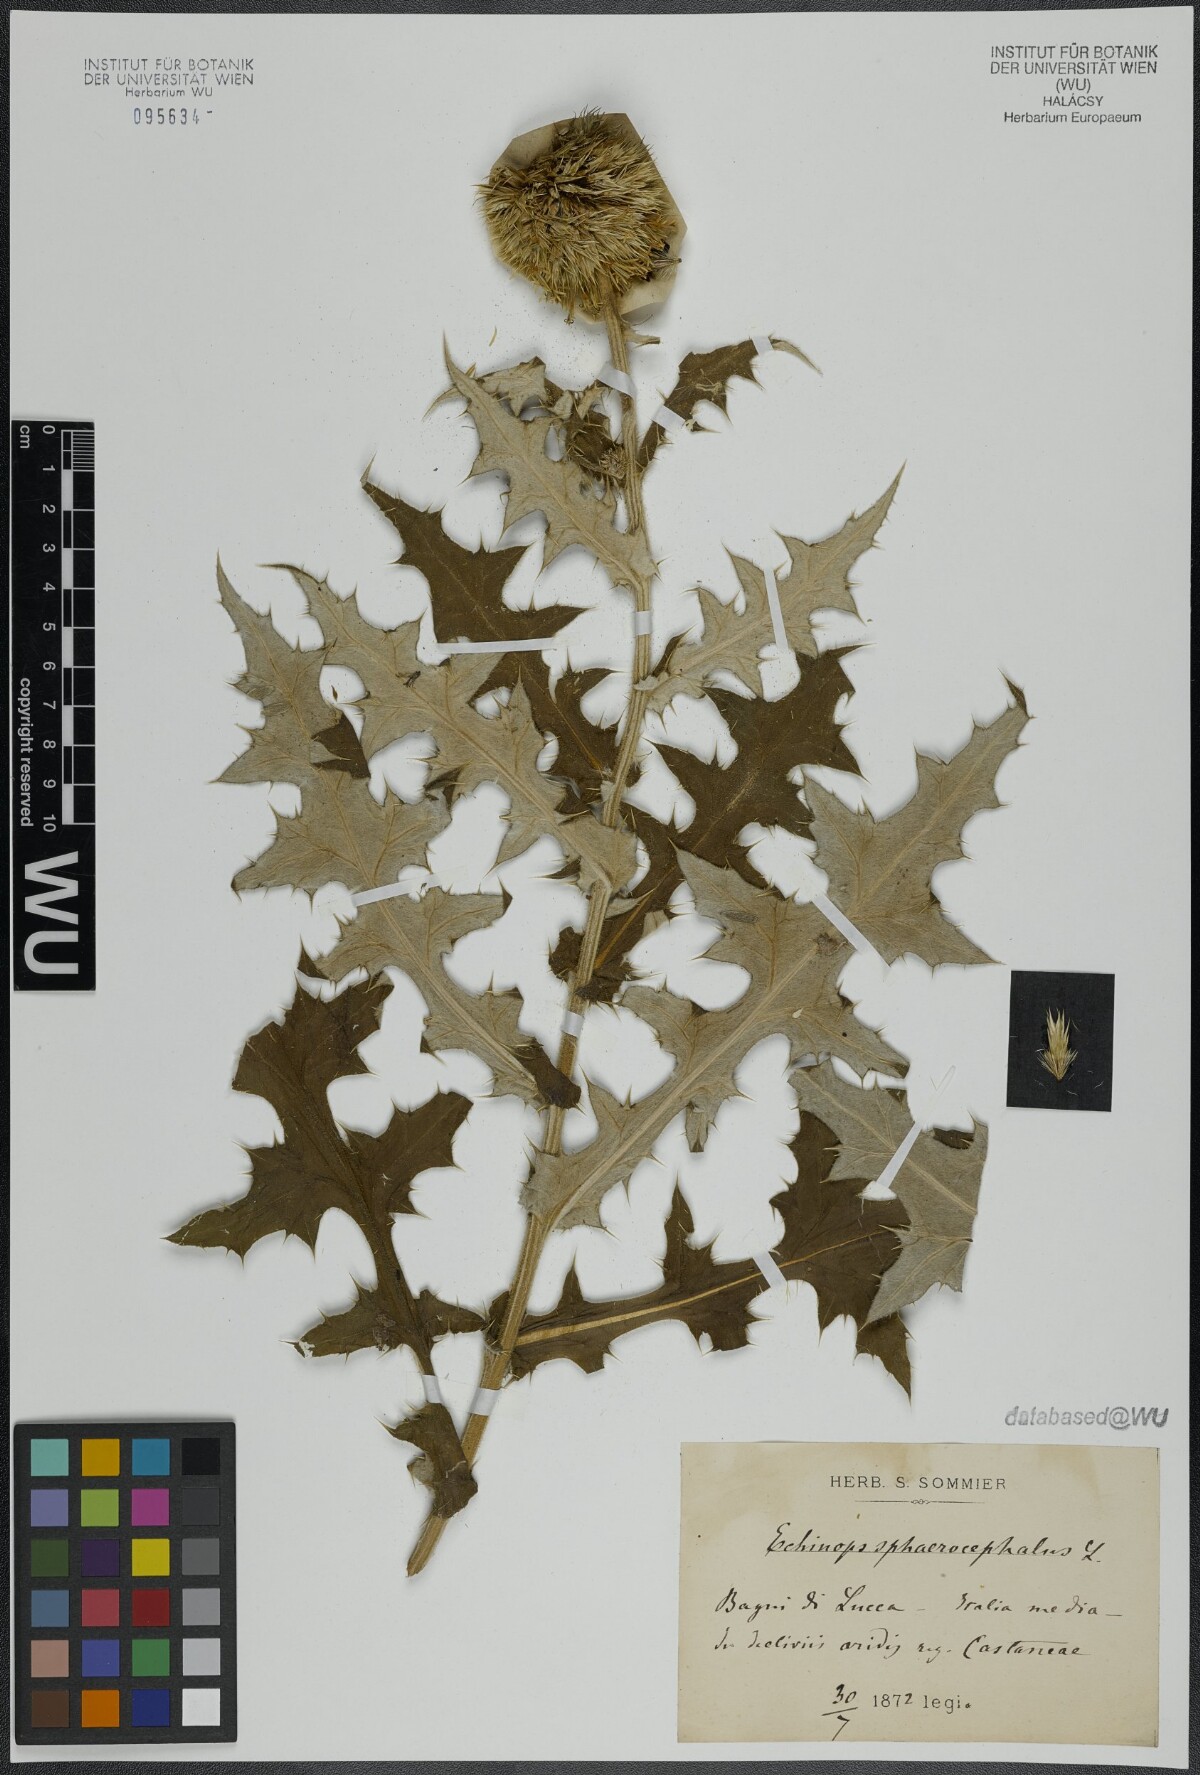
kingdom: Plantae
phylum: Tracheophyta
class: Magnoliopsida
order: Asterales
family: Asteraceae
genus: Echinops
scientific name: Echinops ritro
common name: Globe thistle
